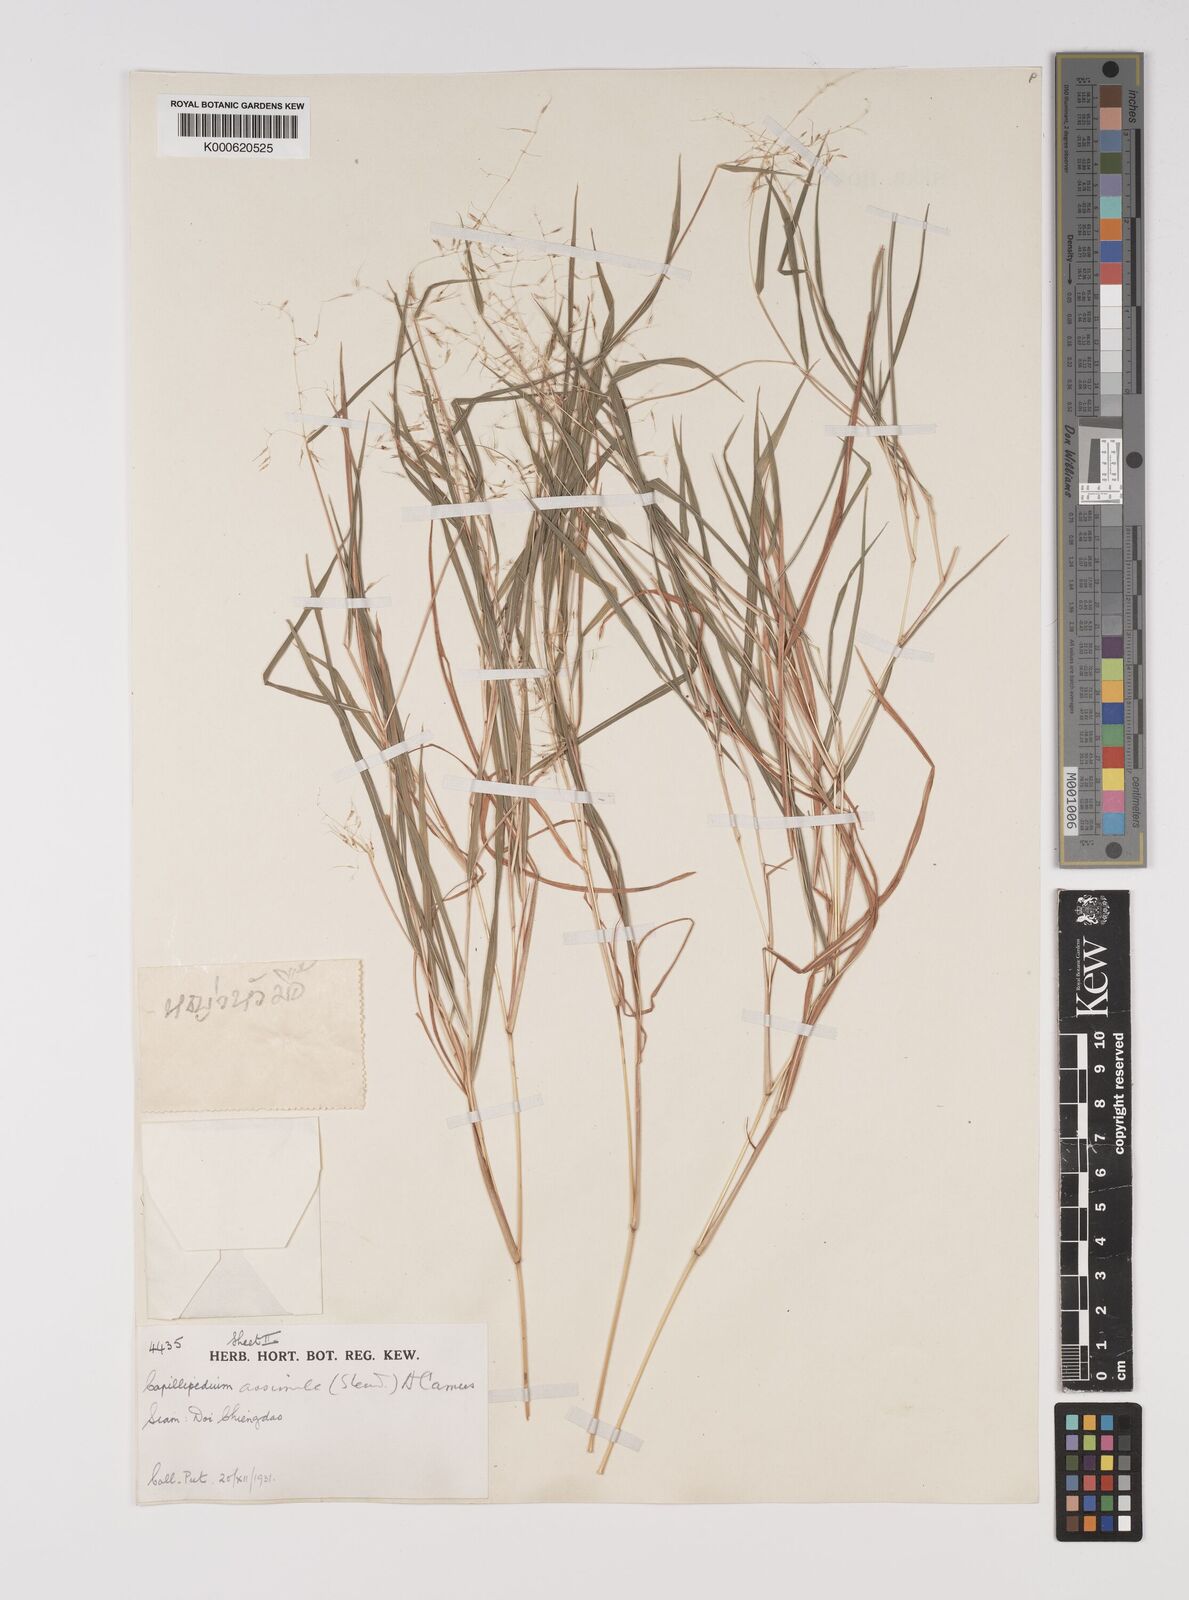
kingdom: Plantae
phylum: Tracheophyta
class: Liliopsida
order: Poales
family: Poaceae
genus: Capillipedium
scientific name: Capillipedium assimile
